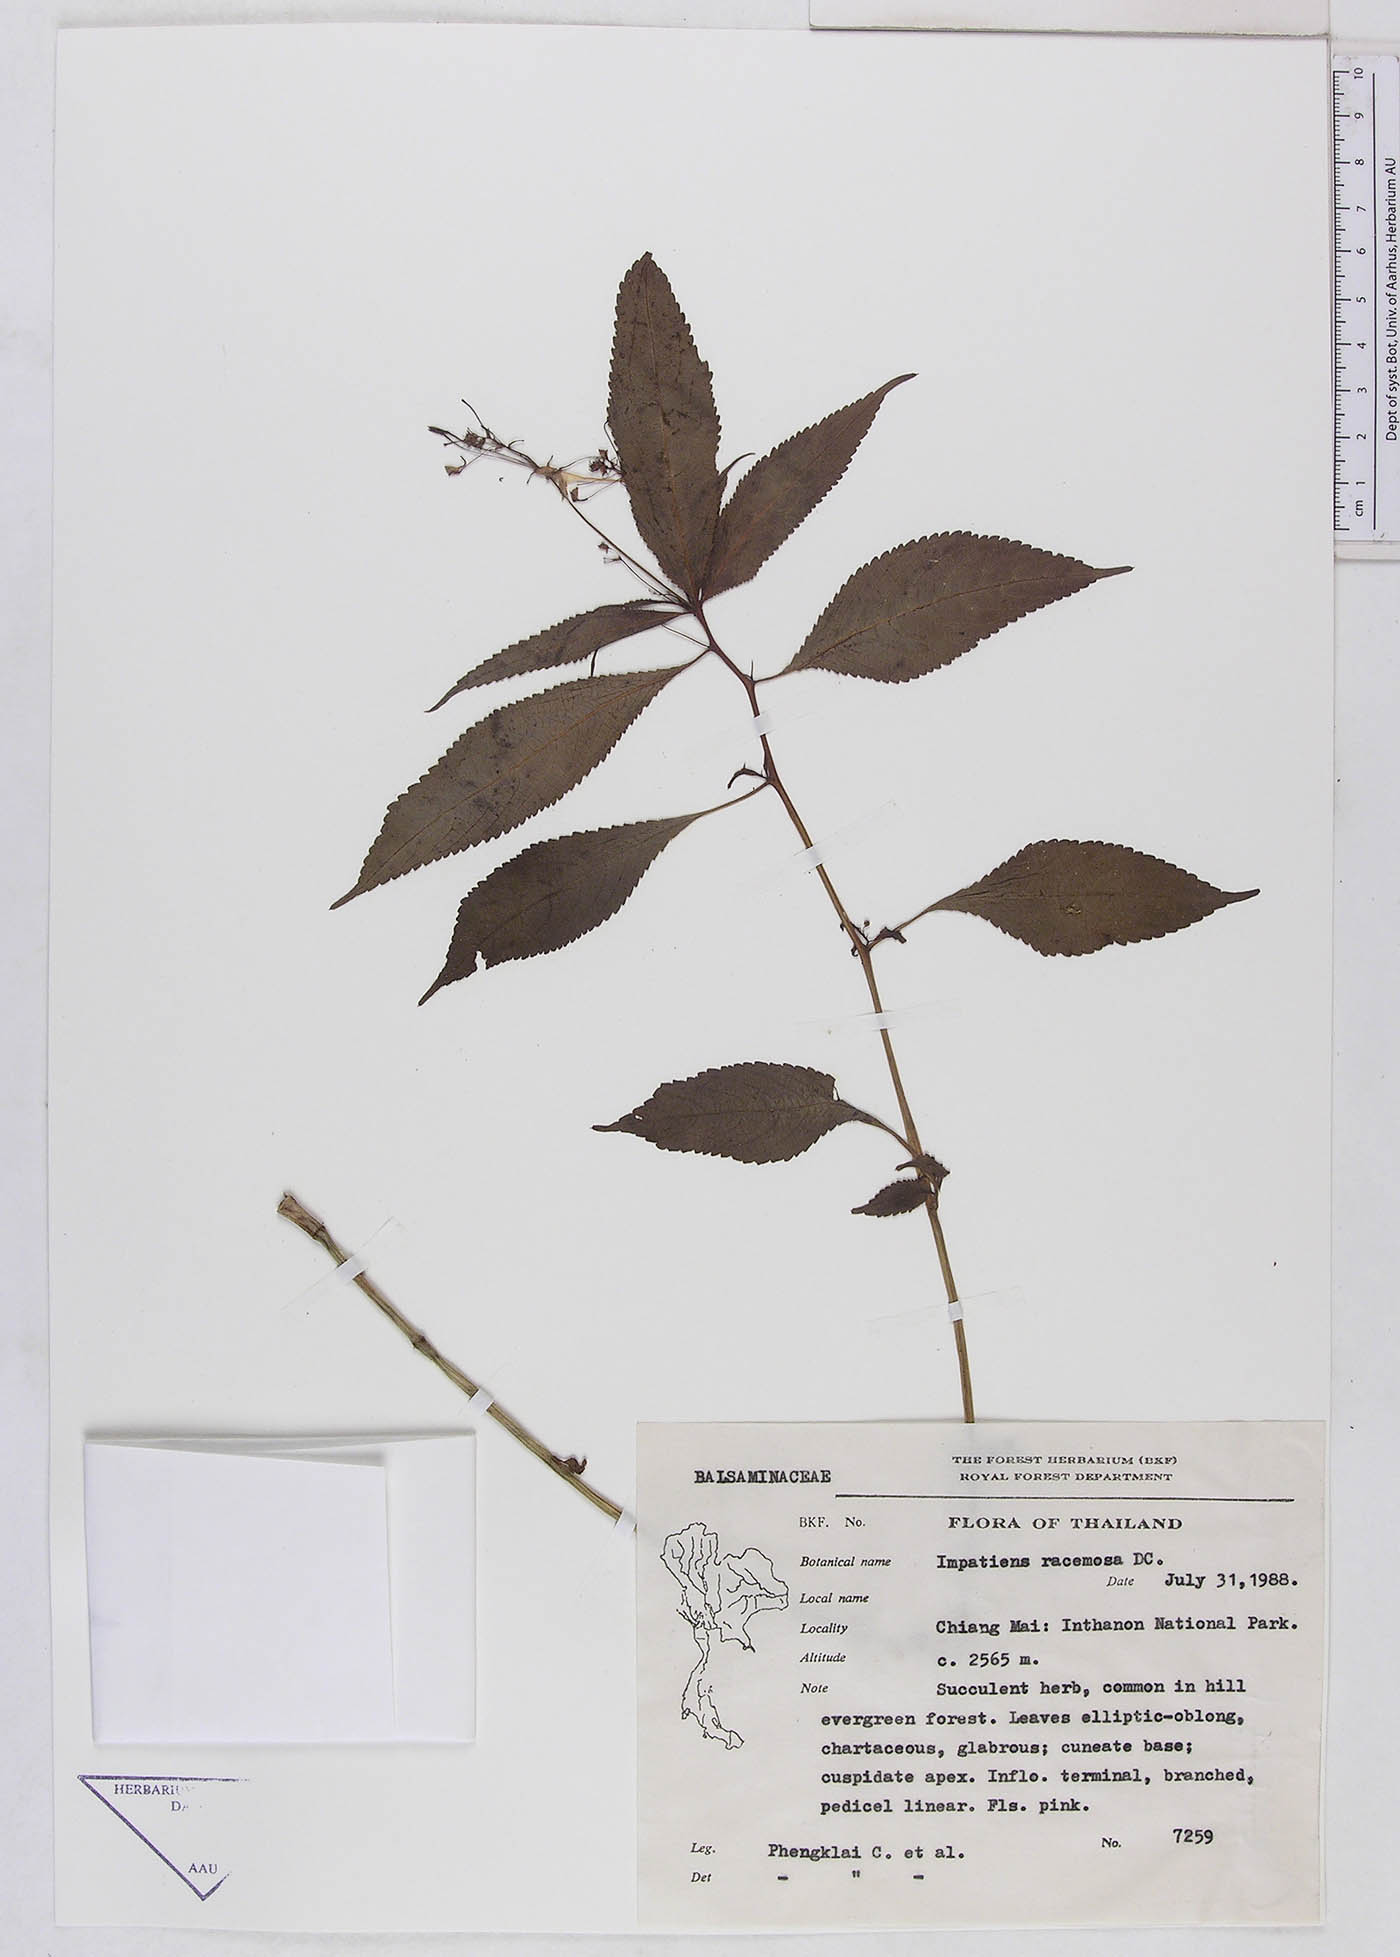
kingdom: Plantae
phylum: Tracheophyta
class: Magnoliopsida
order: Ericales
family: Balsaminaceae
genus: Impatiens
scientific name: Impatiens radiata
